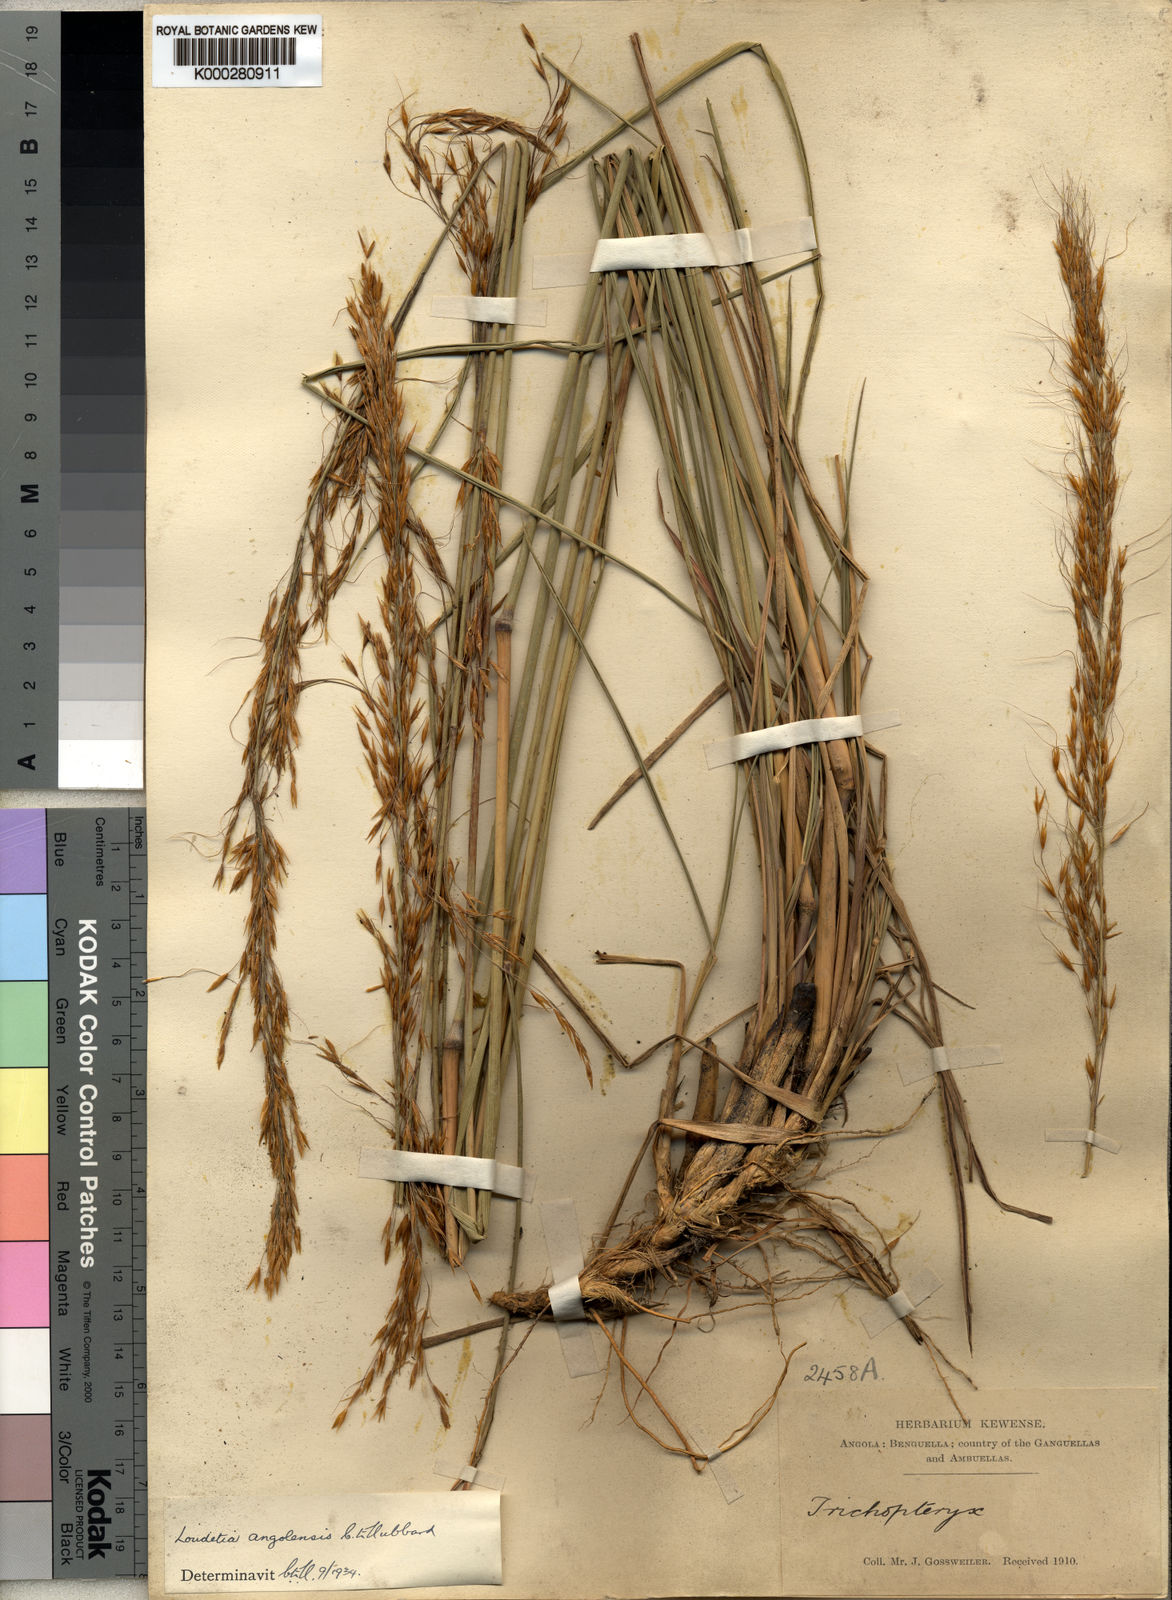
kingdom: Plantae
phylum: Tracheophyta
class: Liliopsida
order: Poales
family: Poaceae
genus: Loudetia
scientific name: Loudetia angolensis
